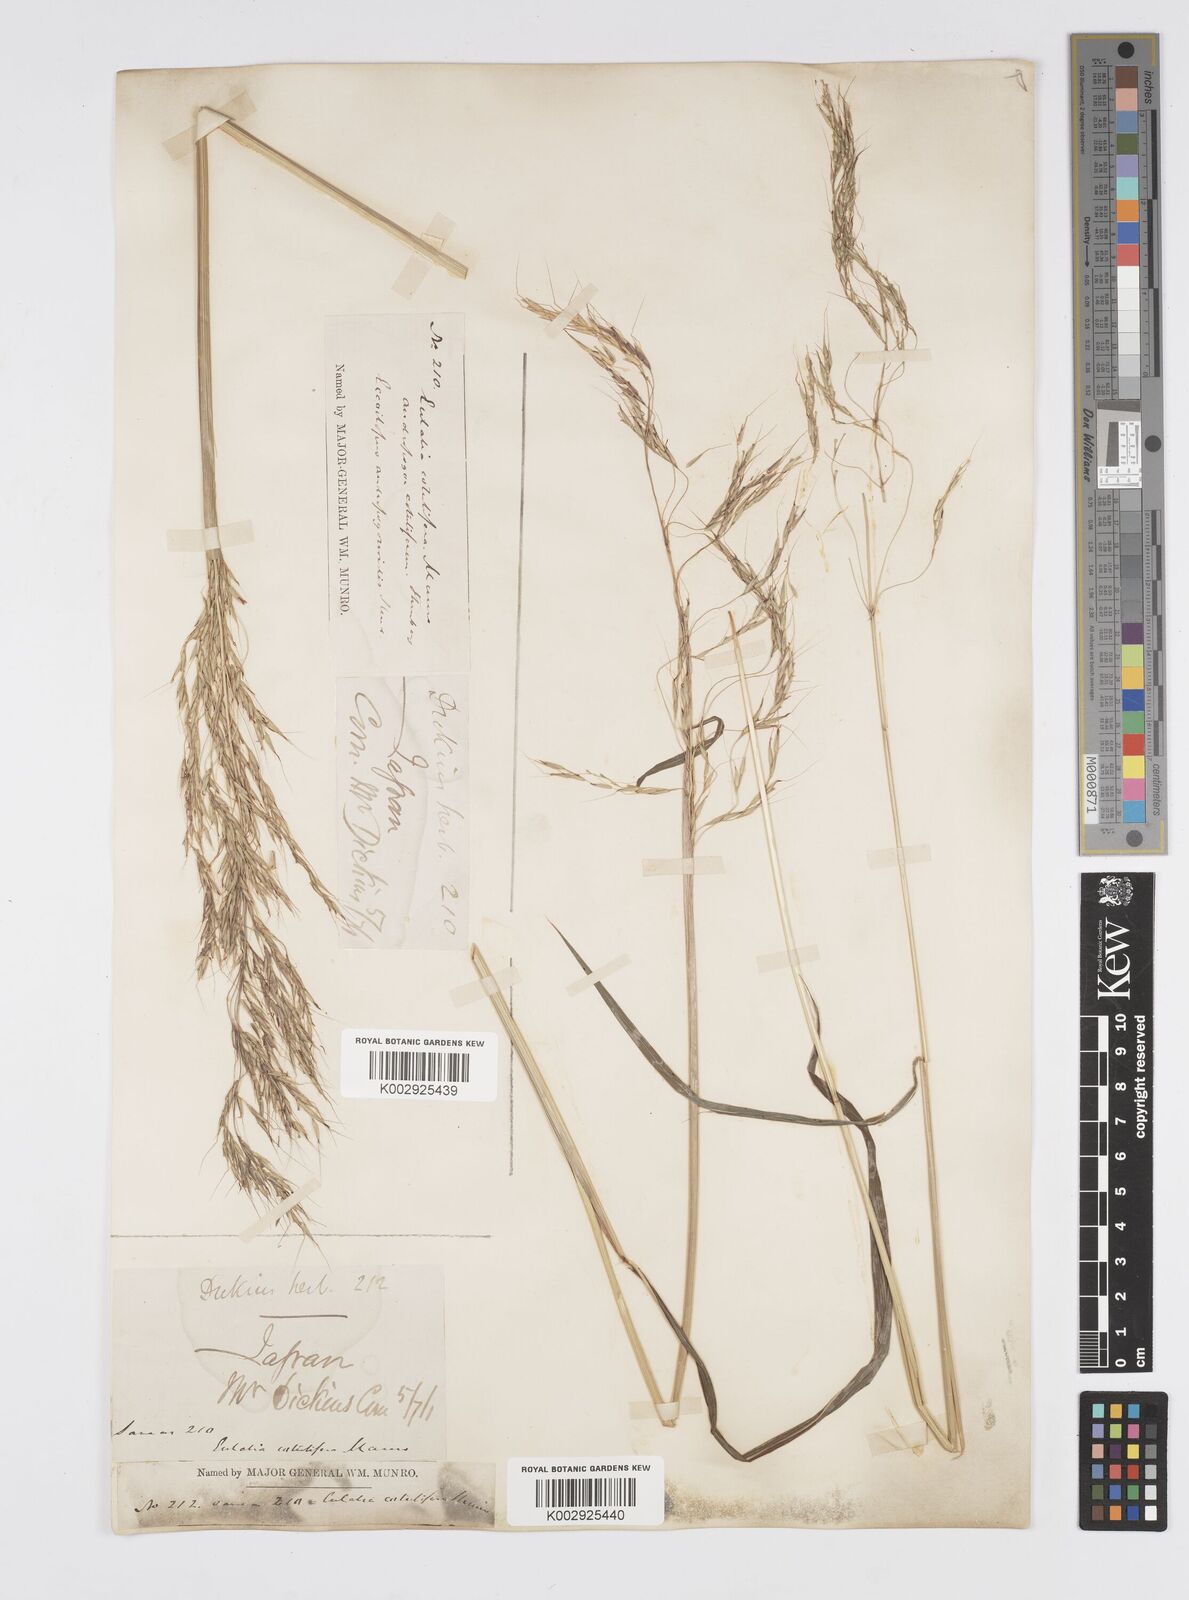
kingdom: Plantae
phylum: Tracheophyta
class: Liliopsida
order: Poales
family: Poaceae
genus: Spodiopogon
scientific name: Spodiopogon cotulifer
